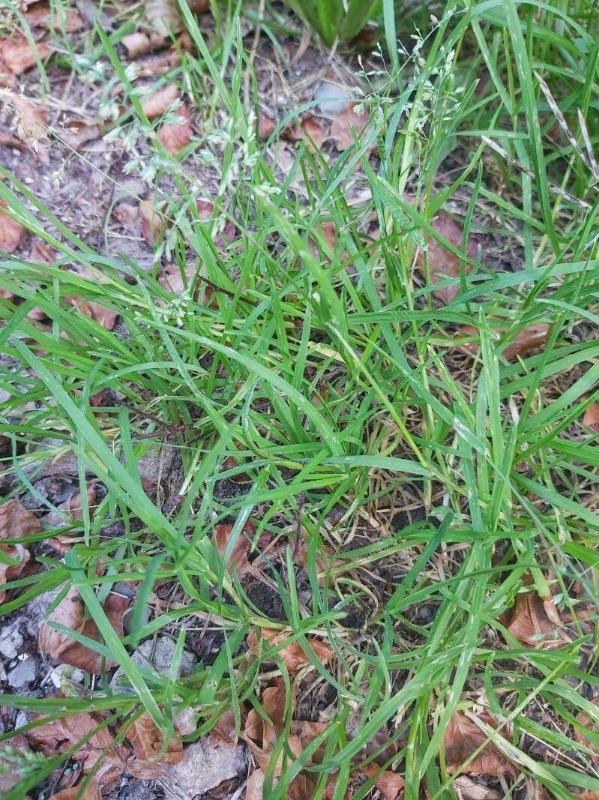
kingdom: Plantae
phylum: Tracheophyta
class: Liliopsida
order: Poales
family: Poaceae
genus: Poa
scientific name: Poa annua
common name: Enårig rapgræs
